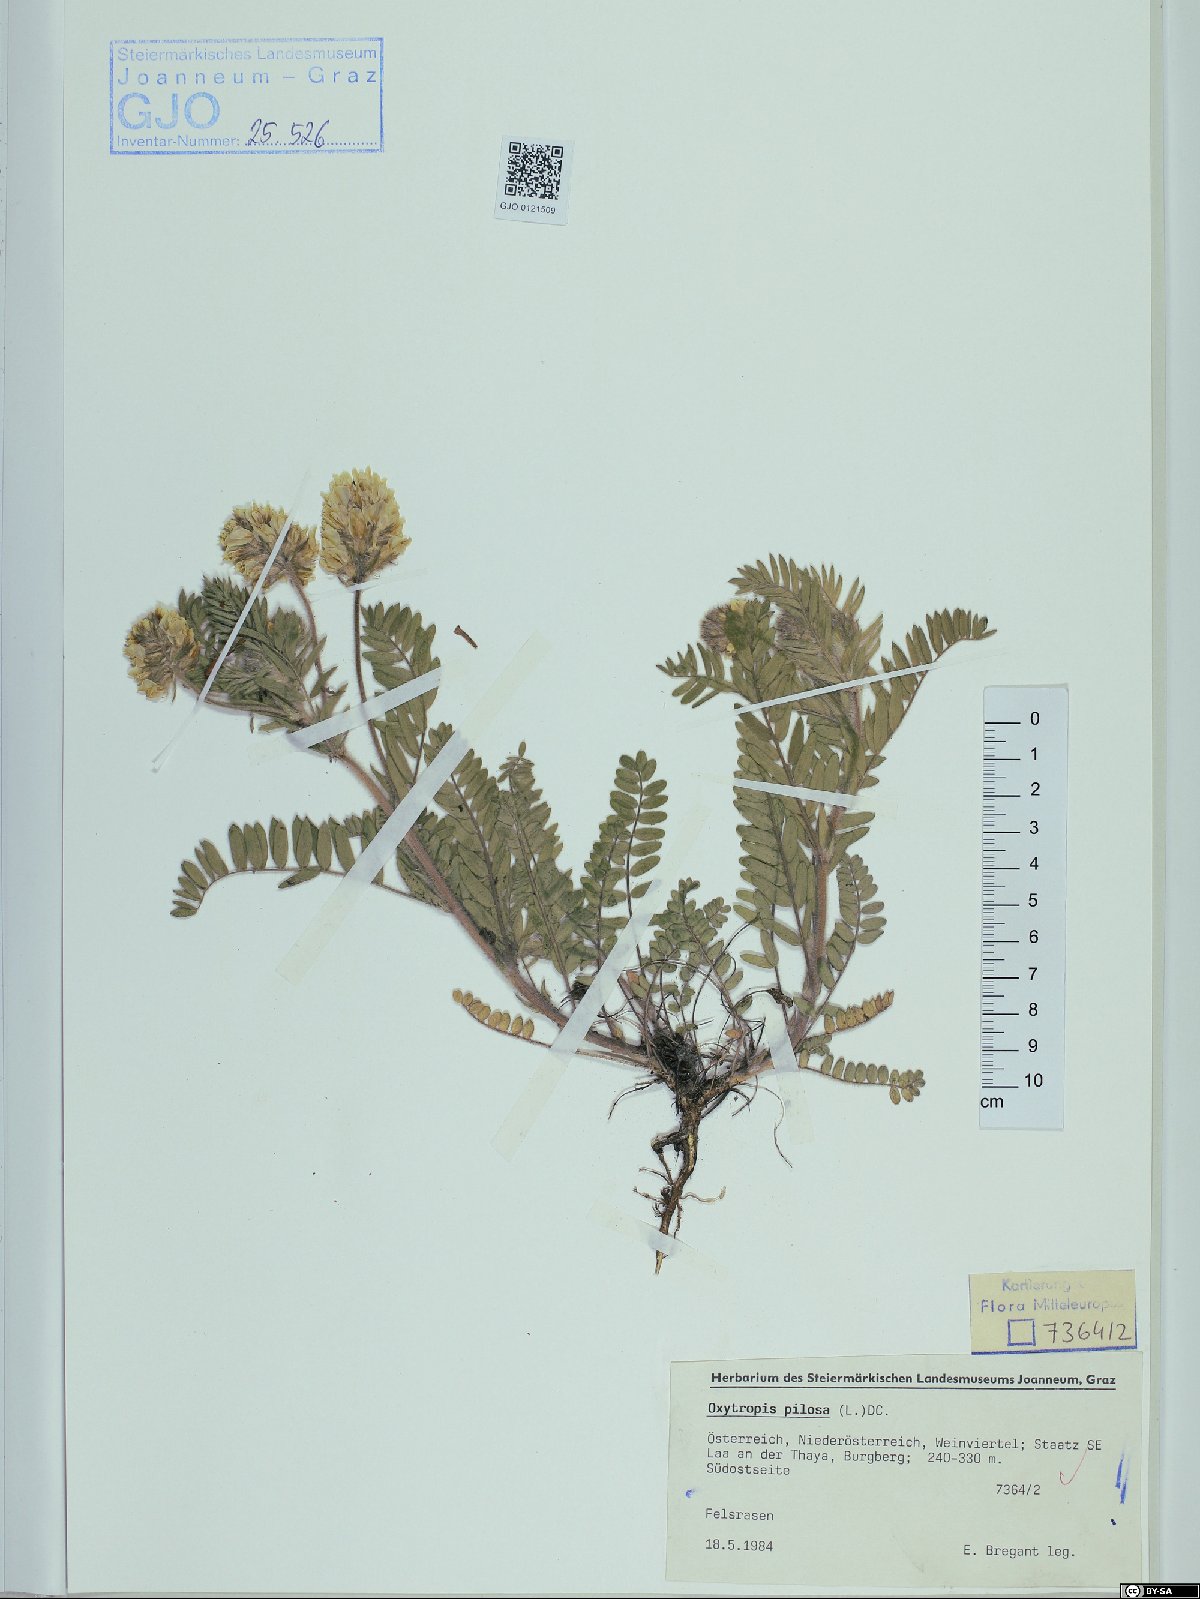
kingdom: Plantae
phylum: Tracheophyta
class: Magnoliopsida
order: Fabales
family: Fabaceae
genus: Oxytropis
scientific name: Oxytropis pilosa
